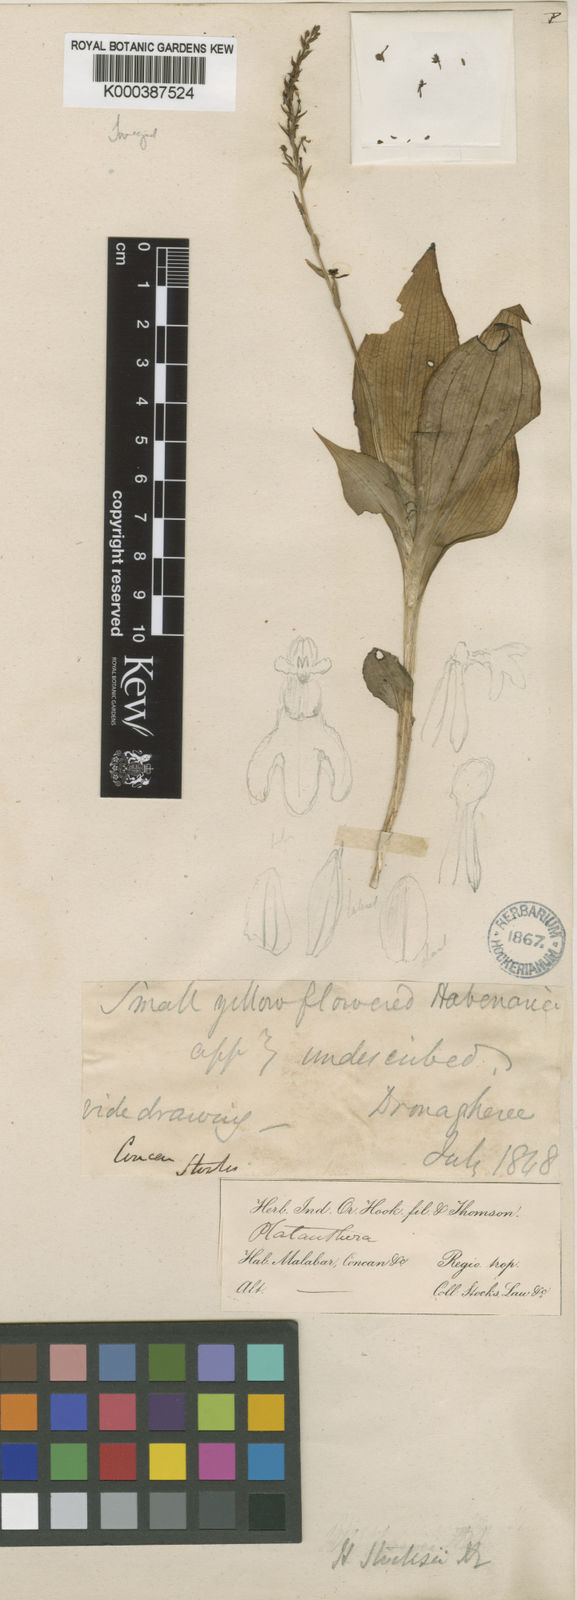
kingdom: Plantae
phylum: Tracheophyta
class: Liliopsida
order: Asparagales
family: Orchidaceae
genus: Peristylus
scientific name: Peristylus stocksii
